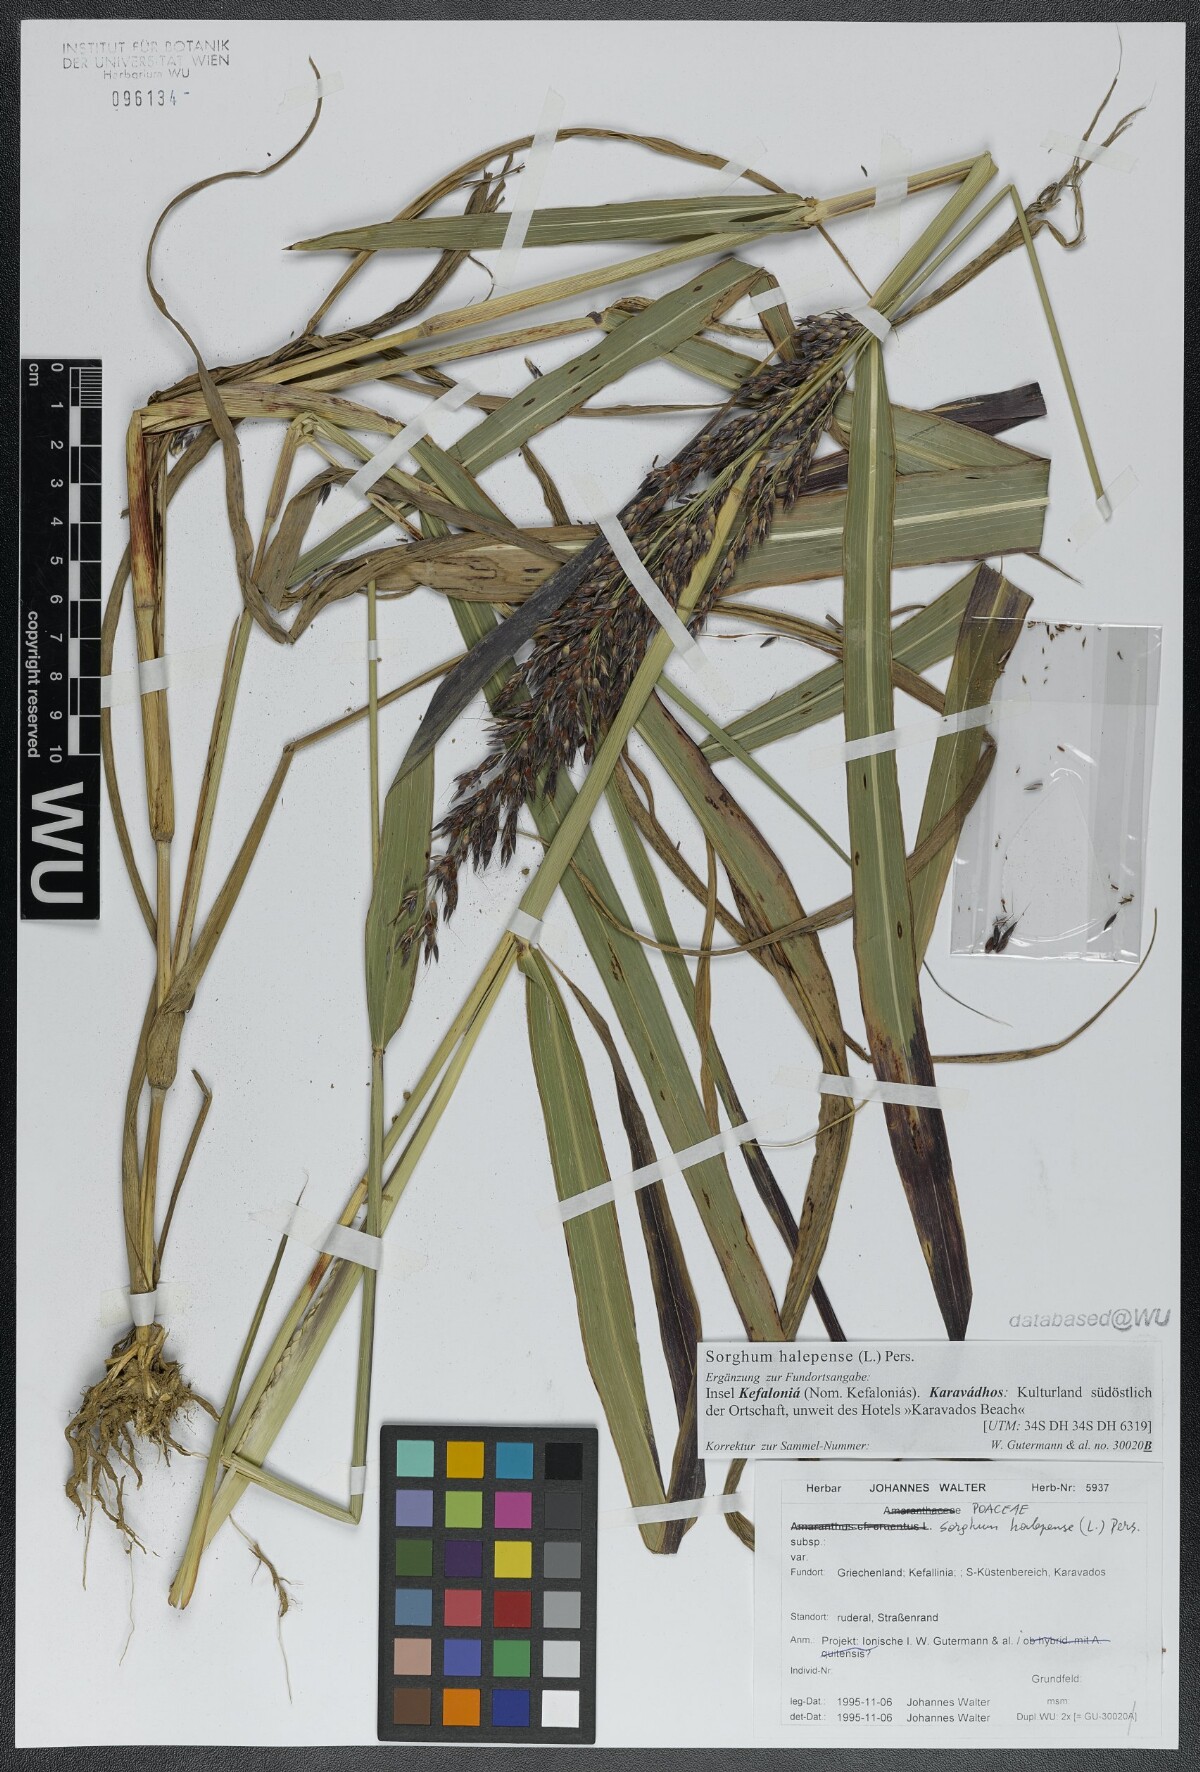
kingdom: Plantae
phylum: Tracheophyta
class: Liliopsida
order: Poales
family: Poaceae
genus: Sorghum
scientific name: Sorghum halepense
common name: Johnson-grass
